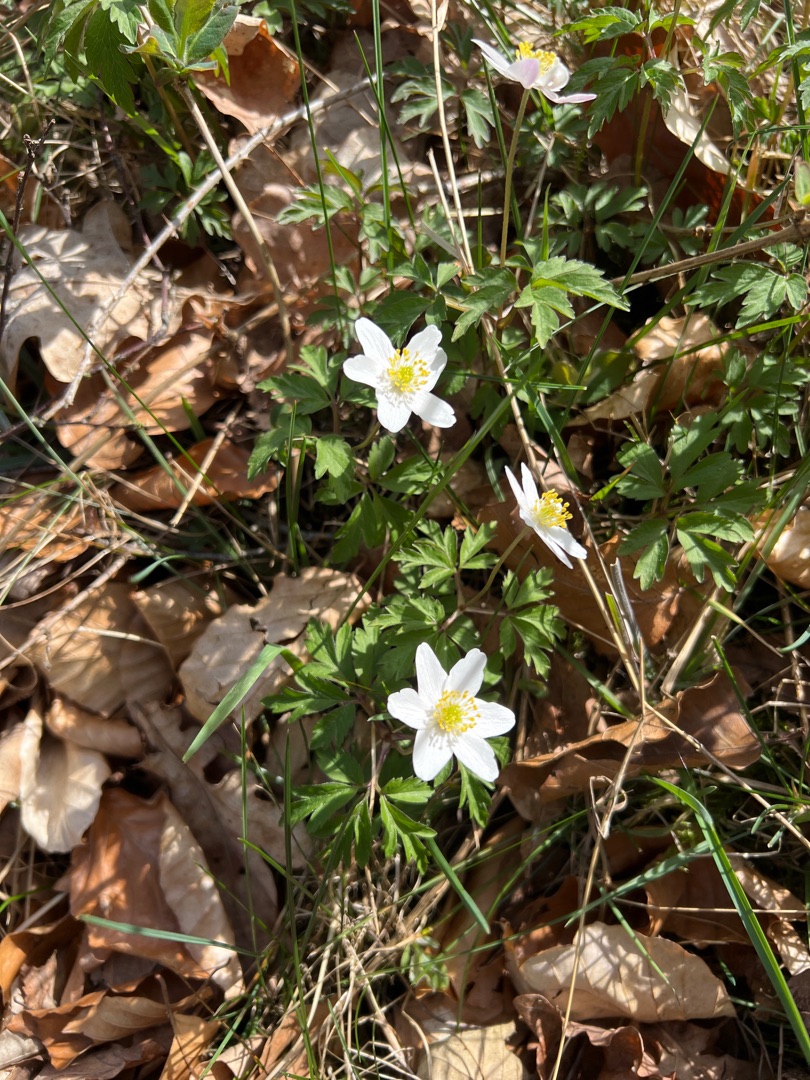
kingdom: Plantae
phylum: Tracheophyta
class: Magnoliopsida
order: Ranunculales
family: Ranunculaceae
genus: Anemone
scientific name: Anemone nemorosa
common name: Hvid anemone
